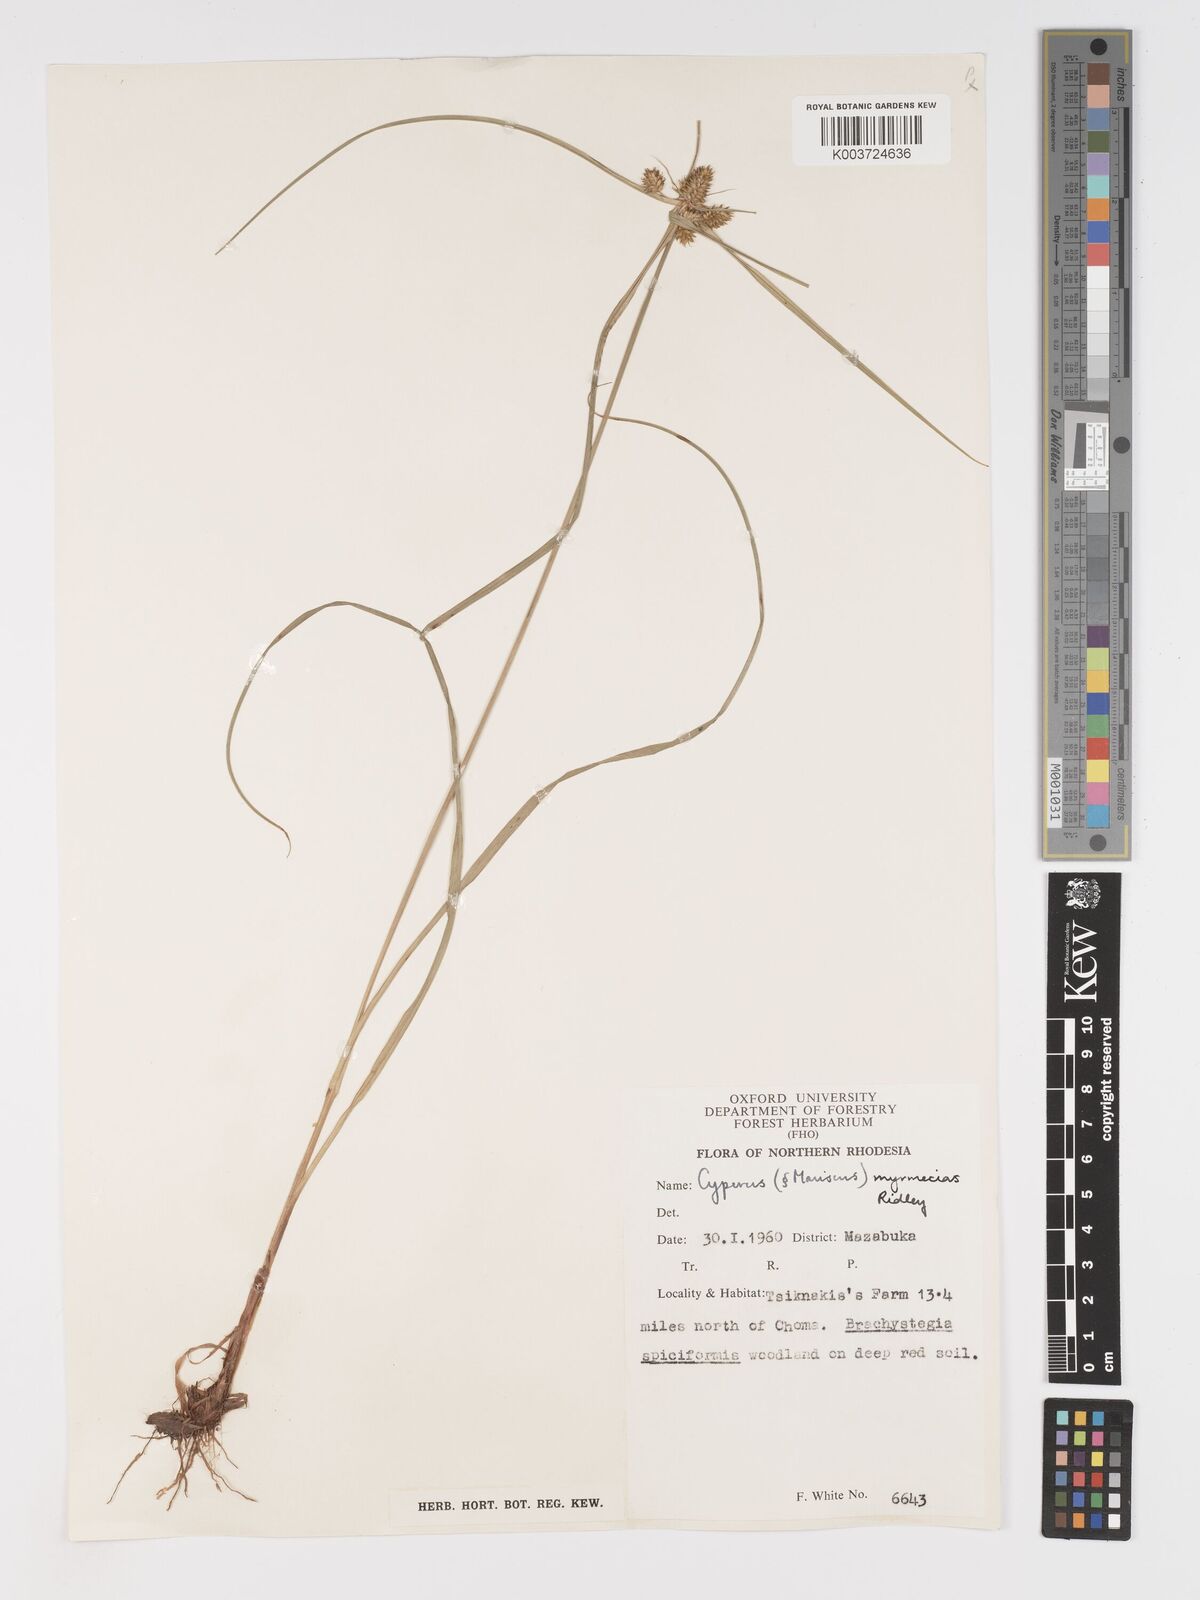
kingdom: Plantae
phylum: Tracheophyta
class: Liliopsida
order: Poales
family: Cyperaceae
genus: Cyperus
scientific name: Cyperus myrmecias
